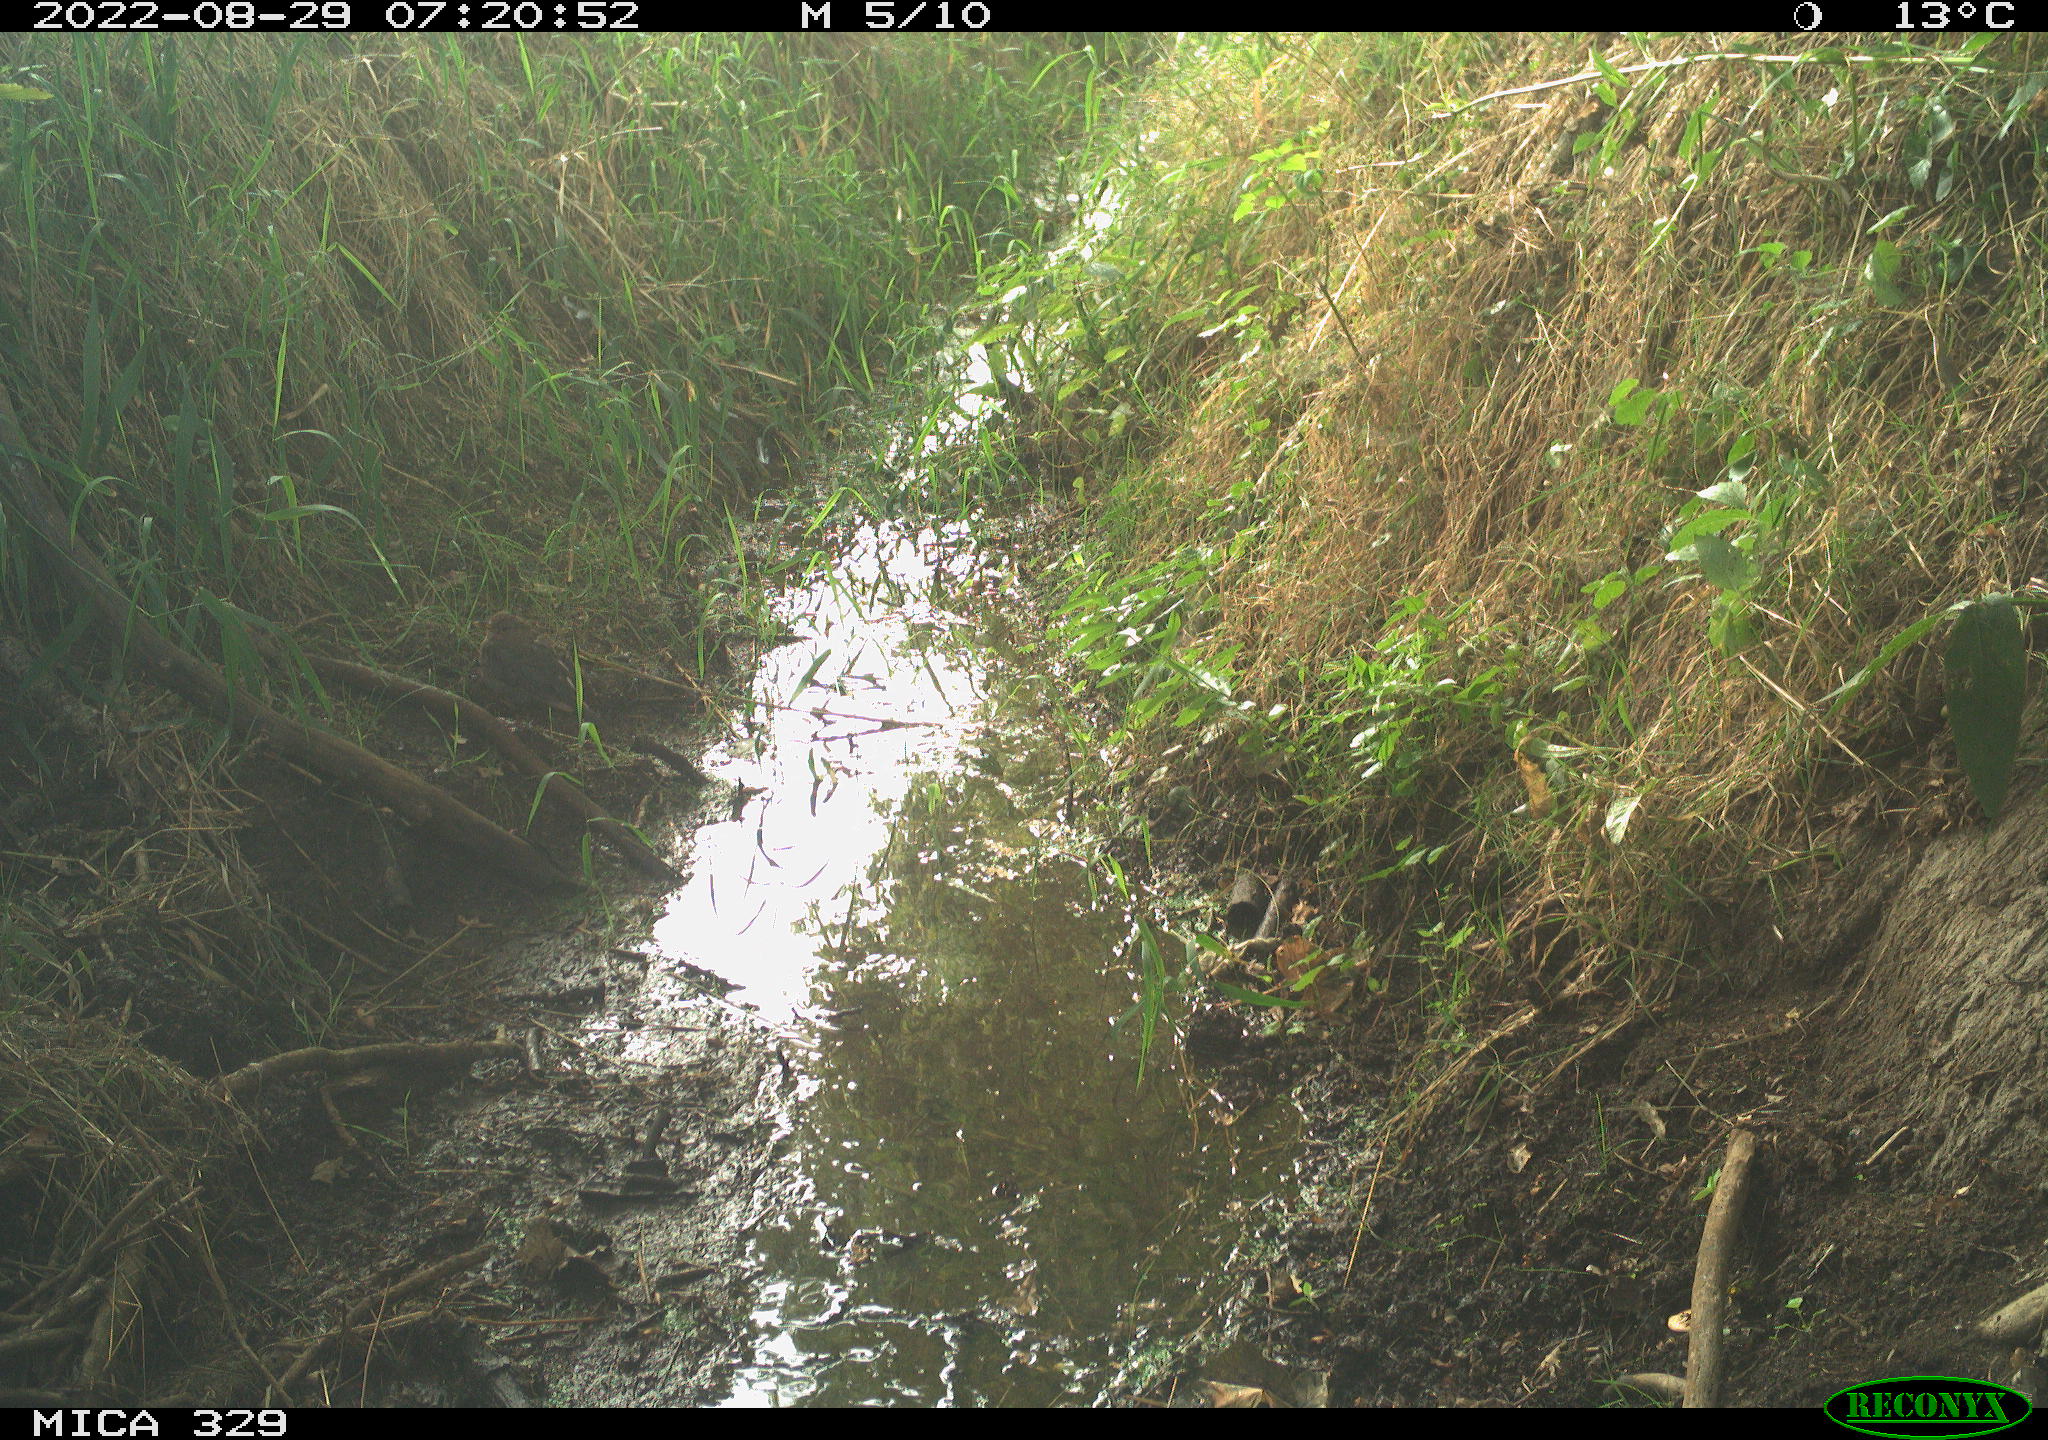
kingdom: Animalia
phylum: Chordata
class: Aves
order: Passeriformes
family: Turdidae
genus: Turdus
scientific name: Turdus merula
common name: Common blackbird
